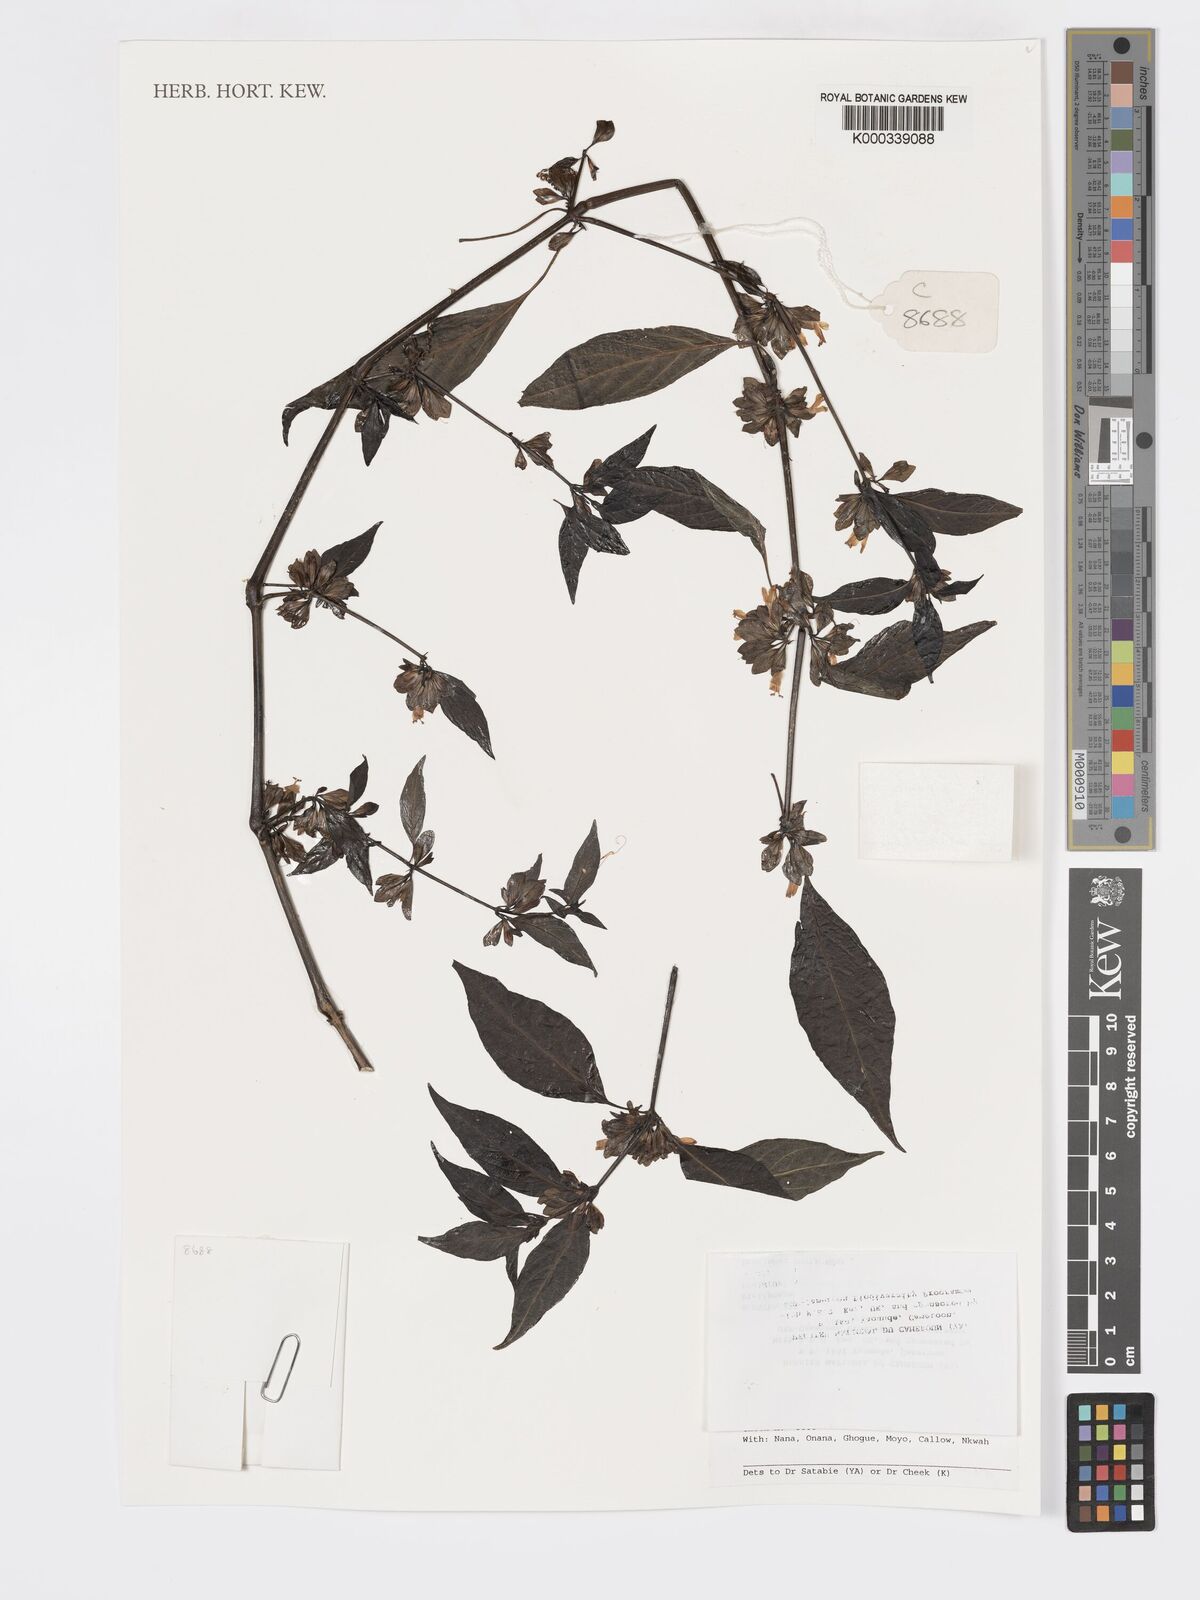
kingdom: Plantae
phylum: Tracheophyta
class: Magnoliopsida
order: Lamiales
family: Acanthaceae
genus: Dicliptera
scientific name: Dicliptera laxata
